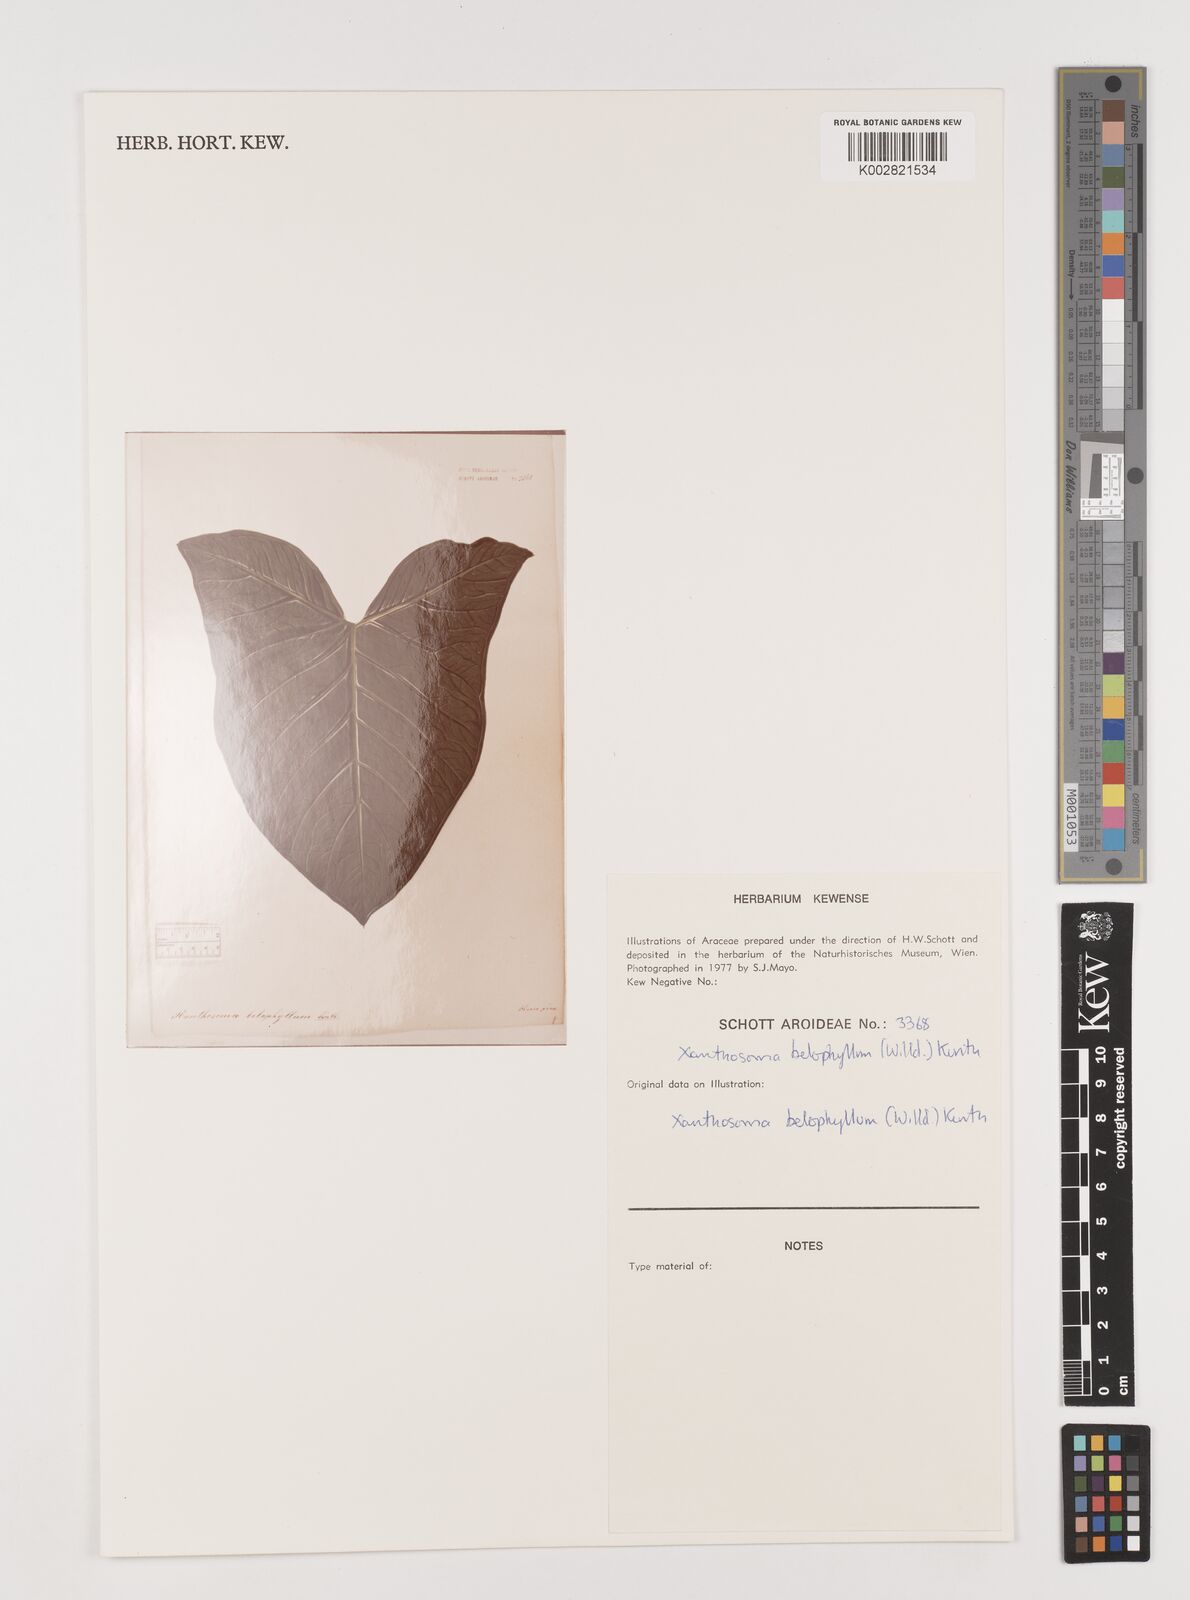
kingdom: Plantae
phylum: Tracheophyta
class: Liliopsida
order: Alismatales
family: Araceae
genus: Xanthosoma
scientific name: Xanthosoma belophyllum
